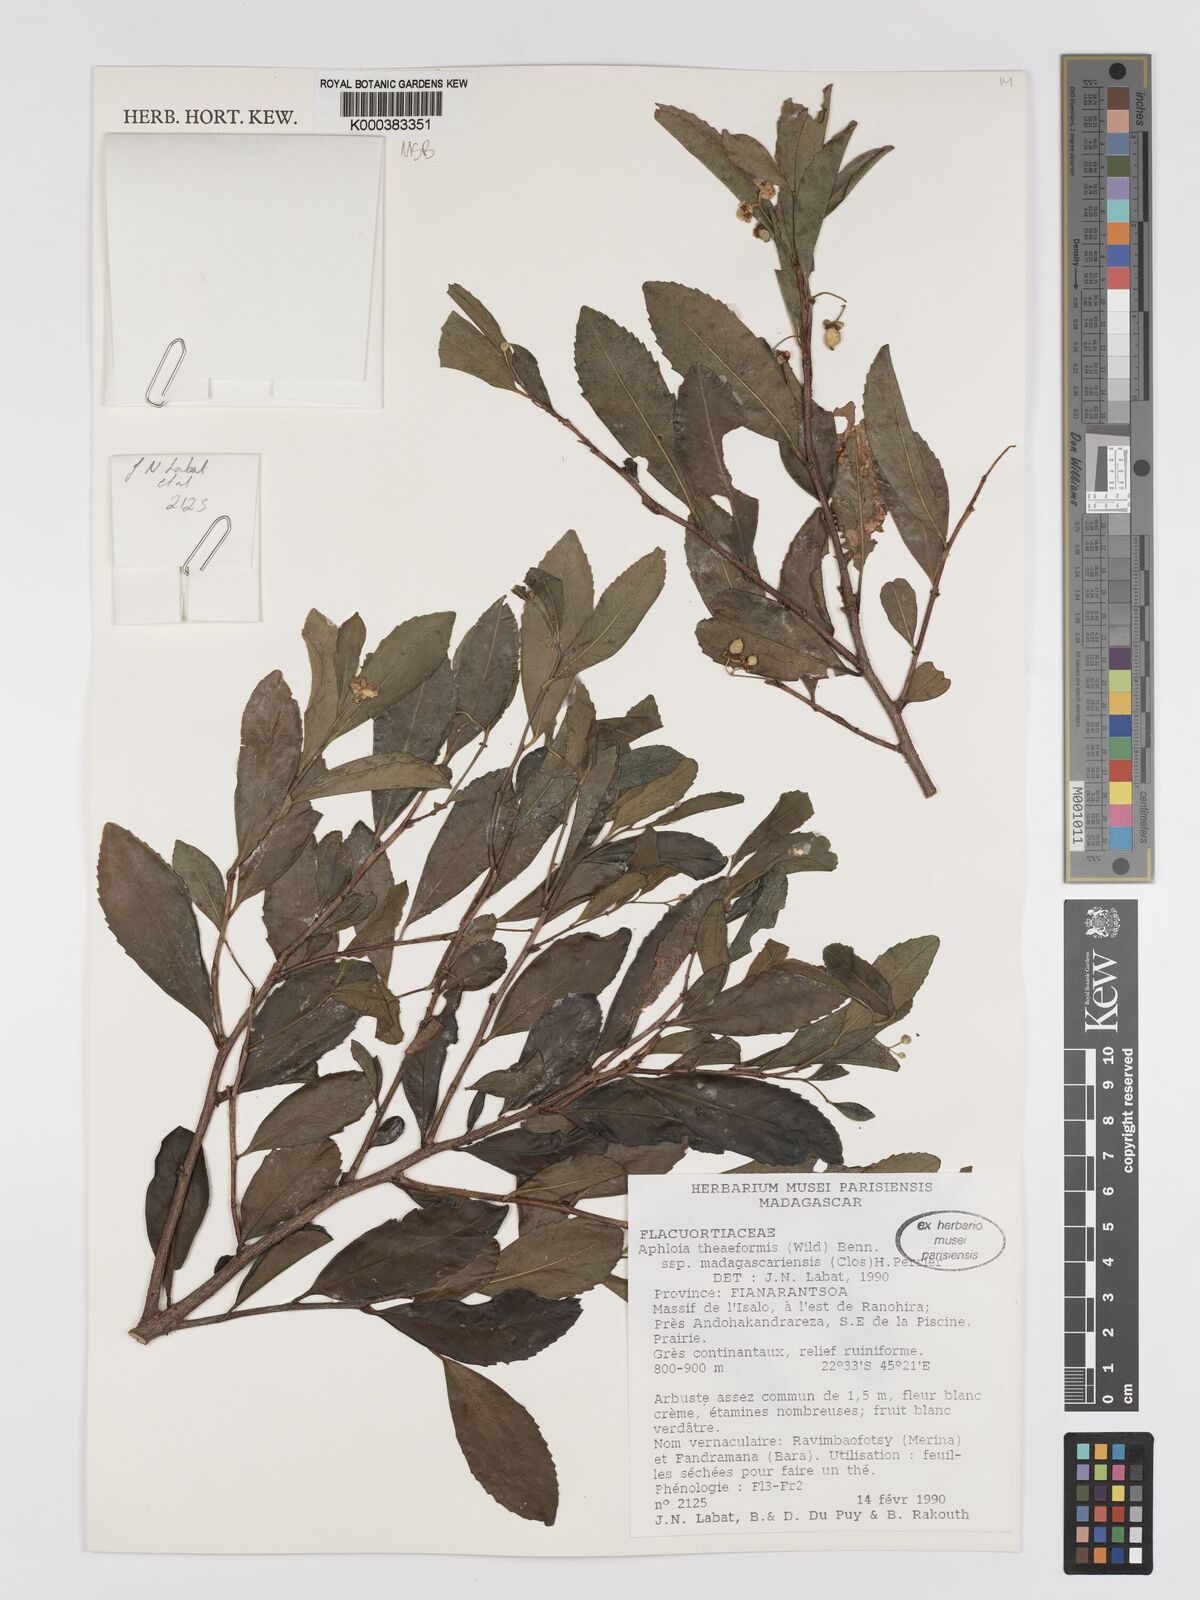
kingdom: Plantae
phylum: Tracheophyta
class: Magnoliopsida
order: Crossosomatales
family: Aphloiaceae
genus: Aphloia
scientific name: Aphloia theiformis
